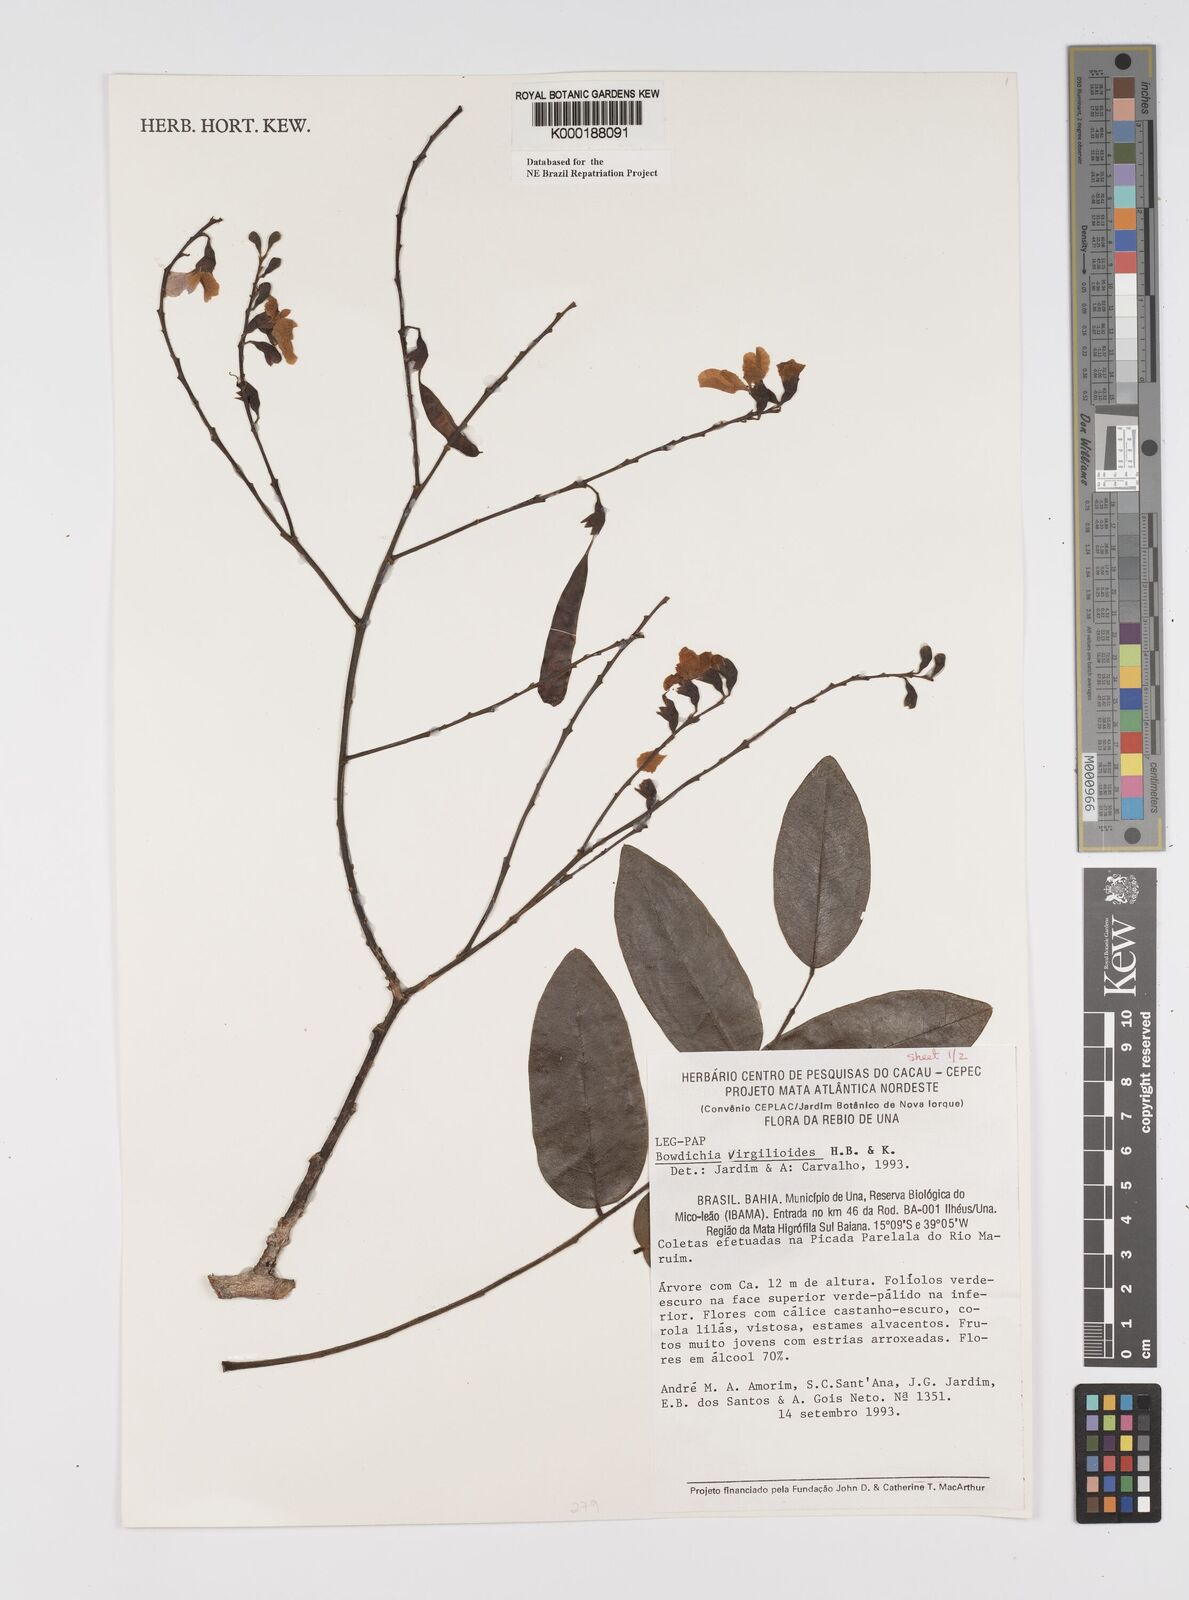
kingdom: Plantae
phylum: Tracheophyta
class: Magnoliopsida
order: Fabales
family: Fabaceae
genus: Bowdichia
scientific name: Bowdichia virgilioides
